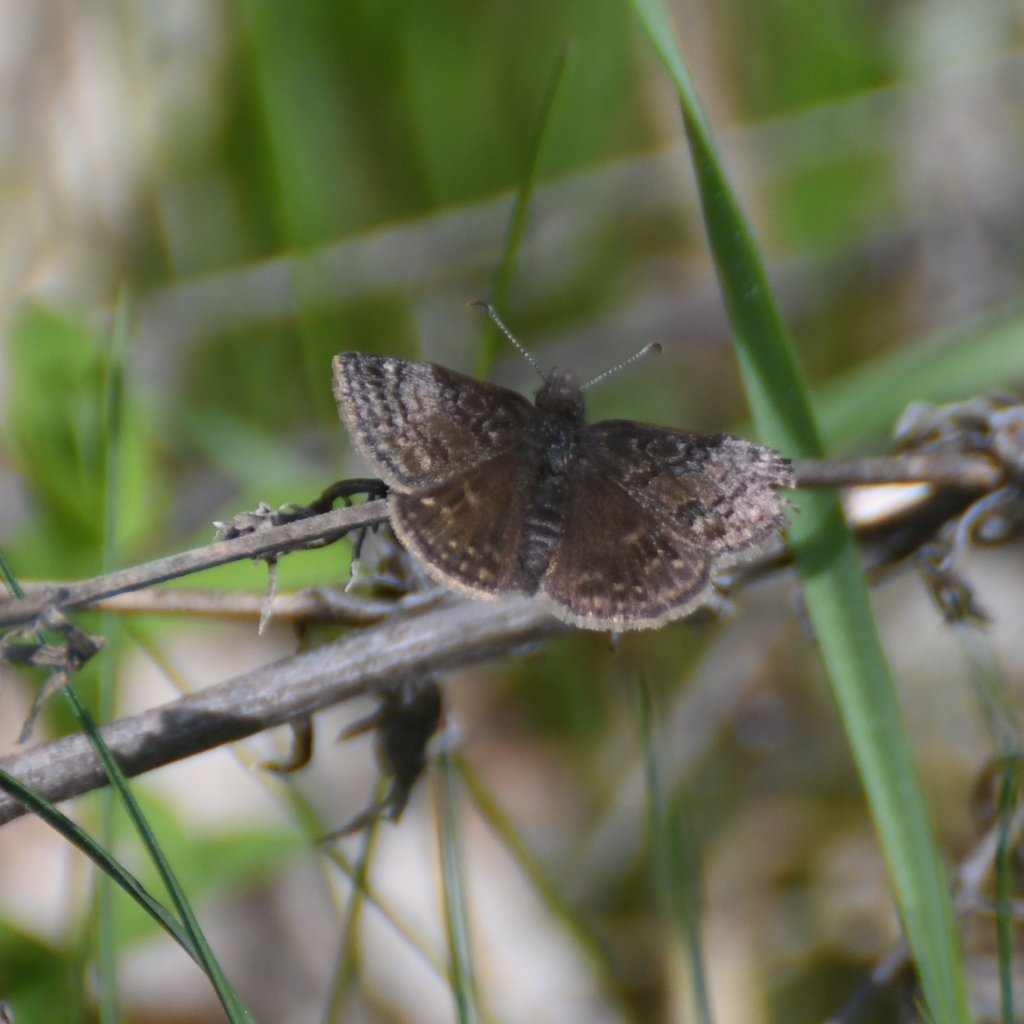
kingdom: Animalia
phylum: Arthropoda
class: Insecta
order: Lepidoptera
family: Hesperiidae
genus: Erynnis
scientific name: Erynnis icelus
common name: Dreamy Duskywing
